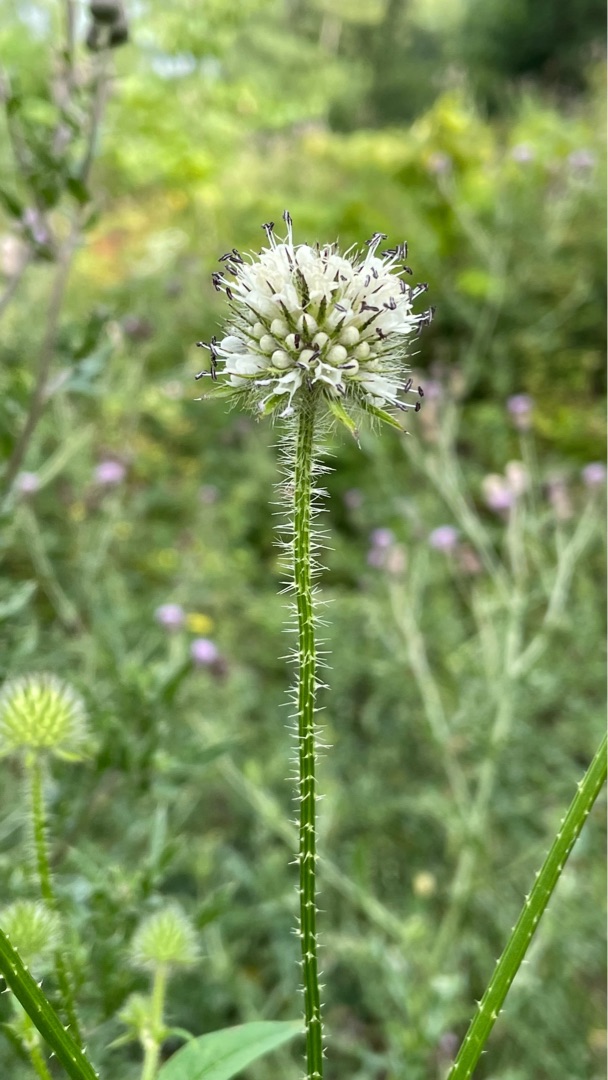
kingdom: Plantae
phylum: Tracheophyta
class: Magnoliopsida
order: Dipsacales
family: Caprifoliaceae
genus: Dipsacus
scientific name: Dipsacus pilosus
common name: Håret kartebolle
